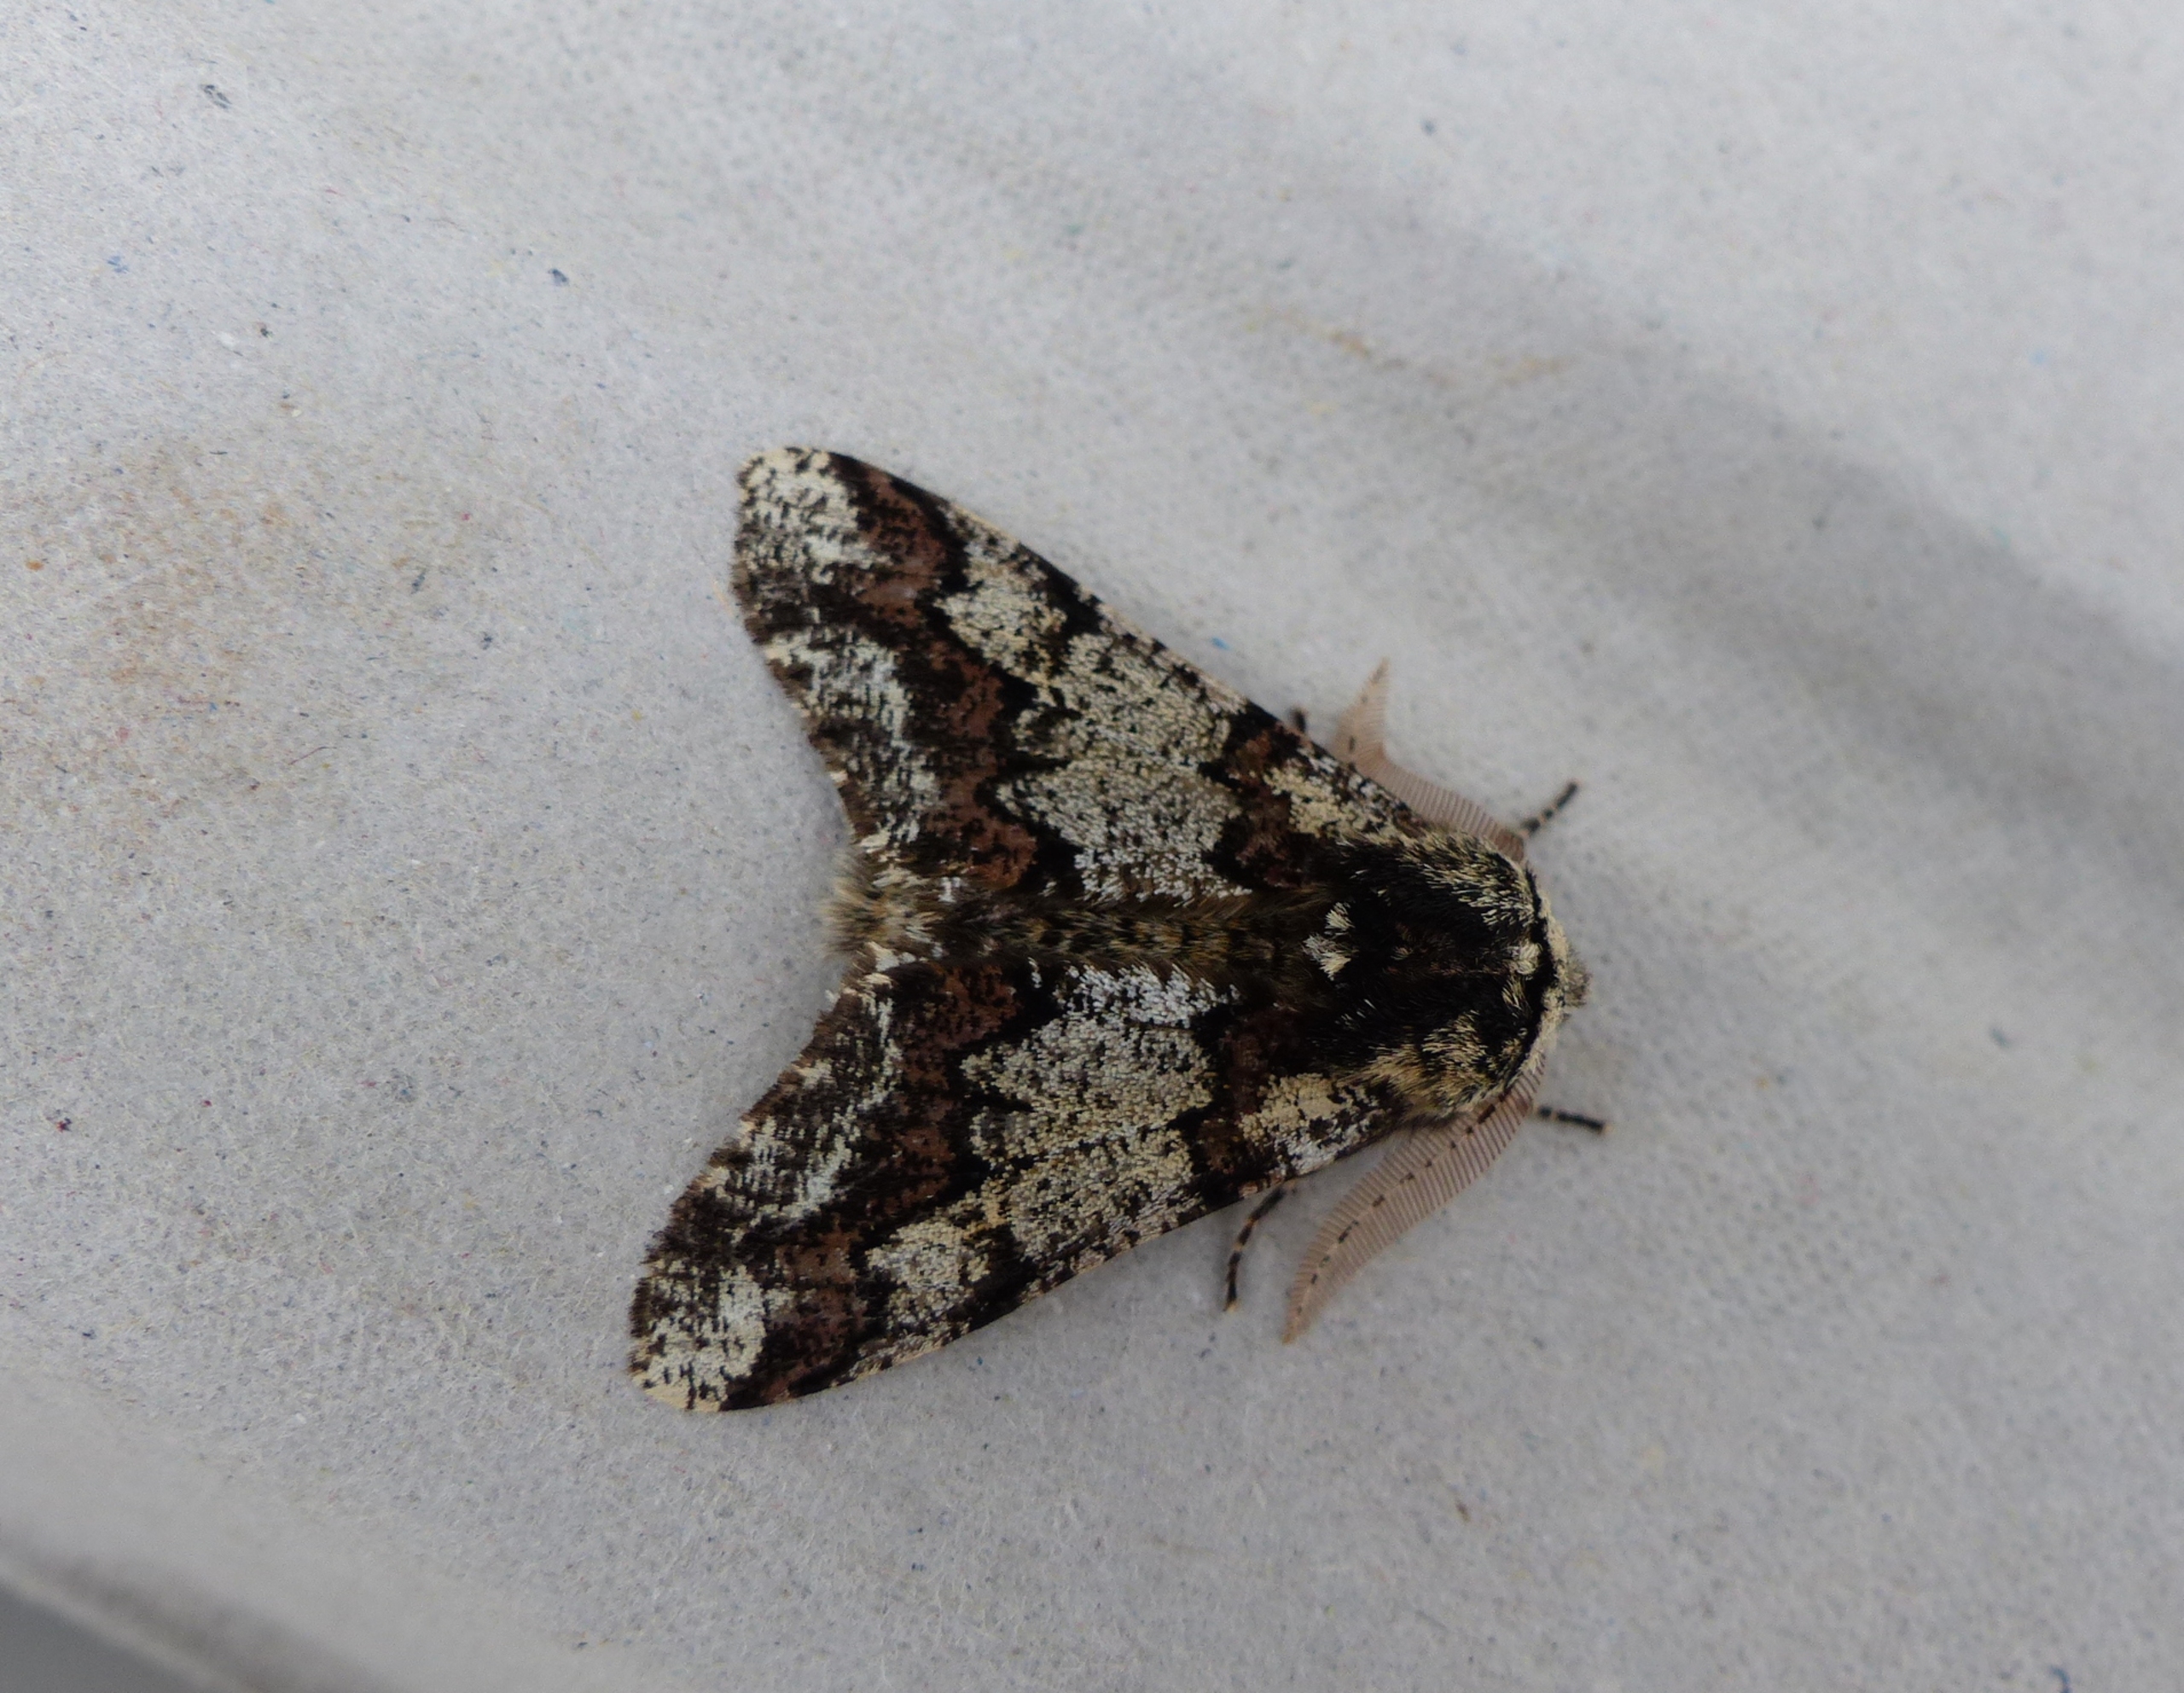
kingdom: Animalia
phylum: Arthropoda
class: Insecta
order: Lepidoptera
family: Geometridae
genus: Biston
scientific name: Biston strataria
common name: Broget vintermåler
